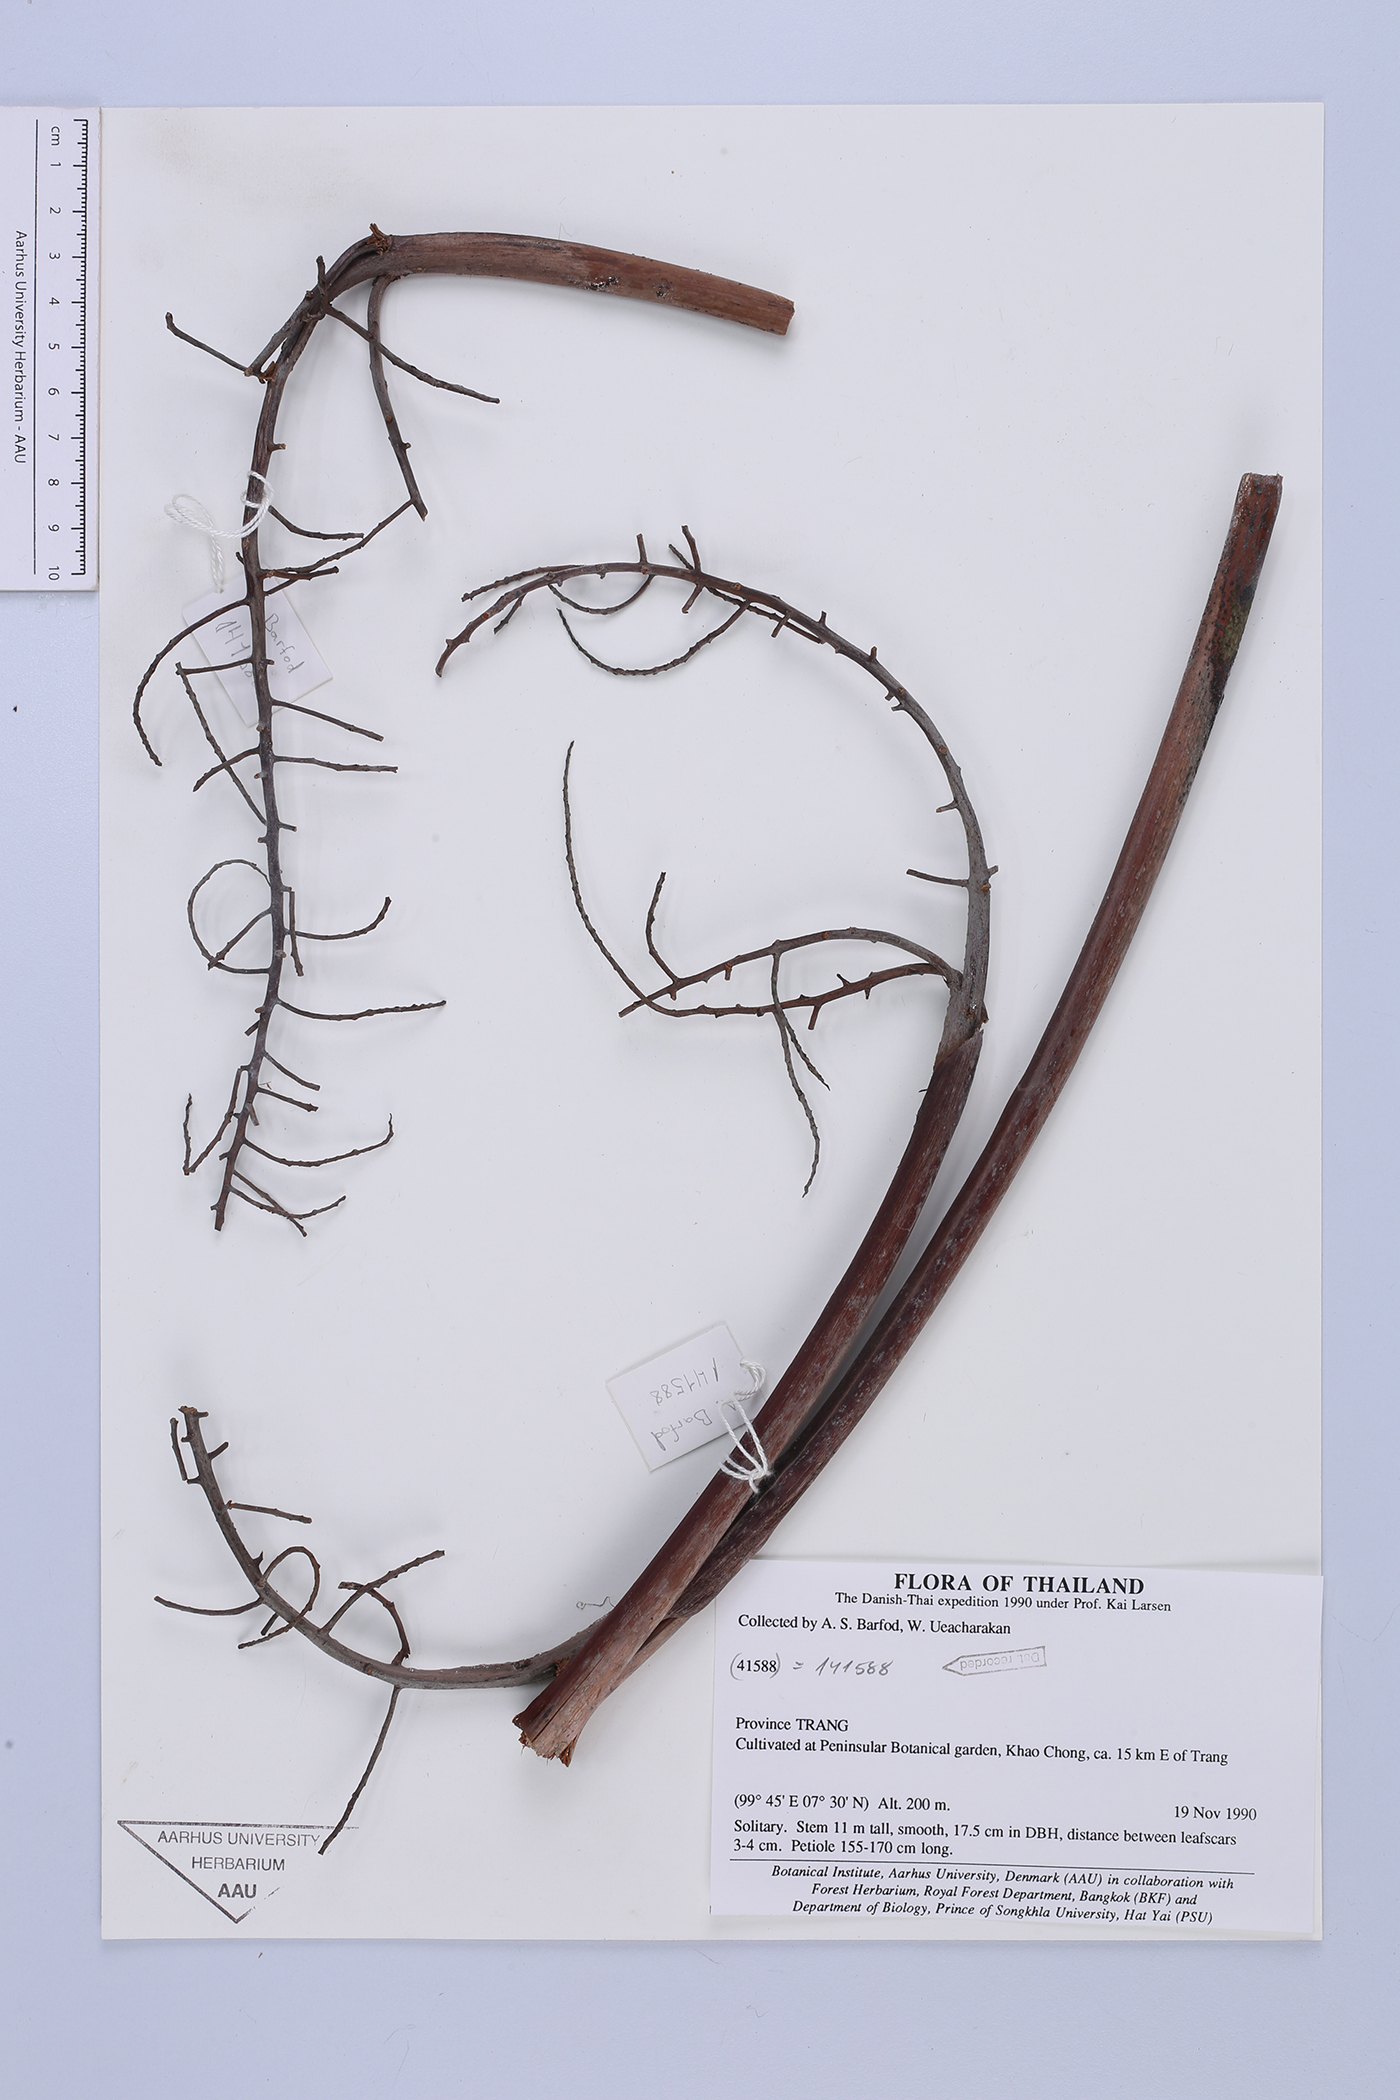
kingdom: Plantae
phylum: Tracheophyta
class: Liliopsida
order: Arecales
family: Arecaceae
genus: Livistona
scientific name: Livistona
